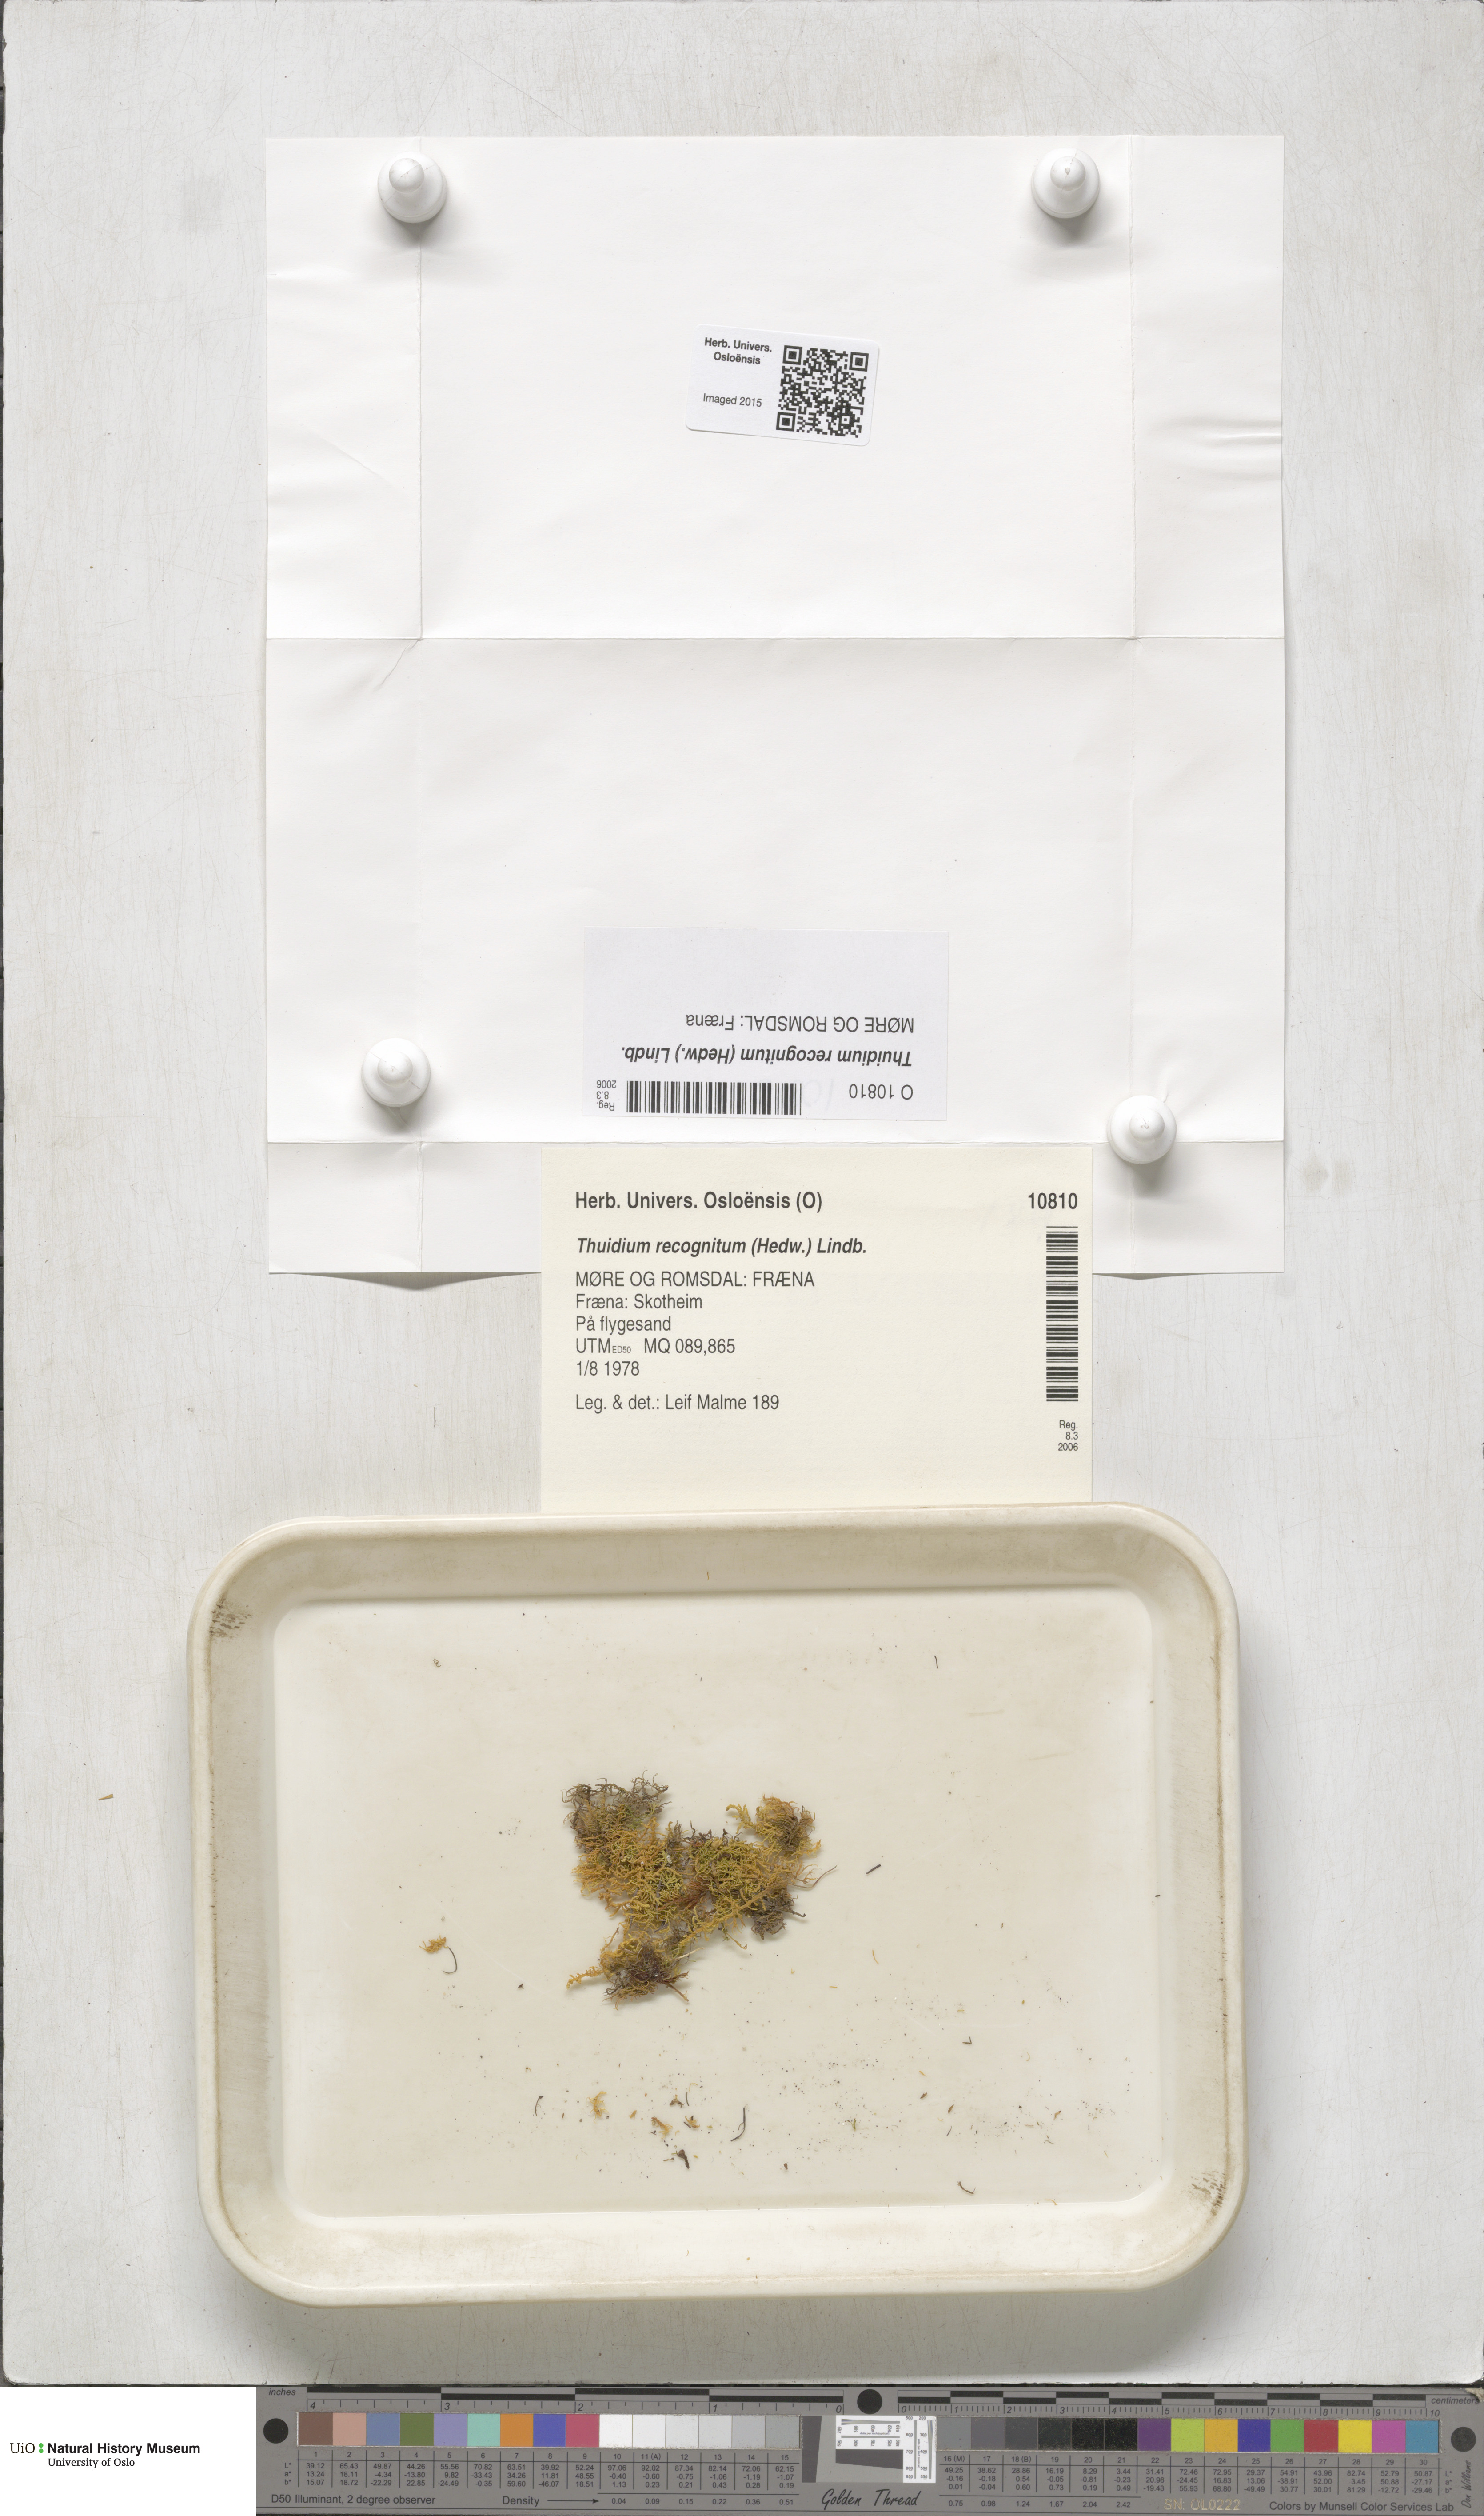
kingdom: Plantae
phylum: Bryophyta
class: Bryopsida
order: Hypnales
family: Thuidiaceae
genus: Thuidium
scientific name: Thuidium recognitum
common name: Hook-leaved fern moss
